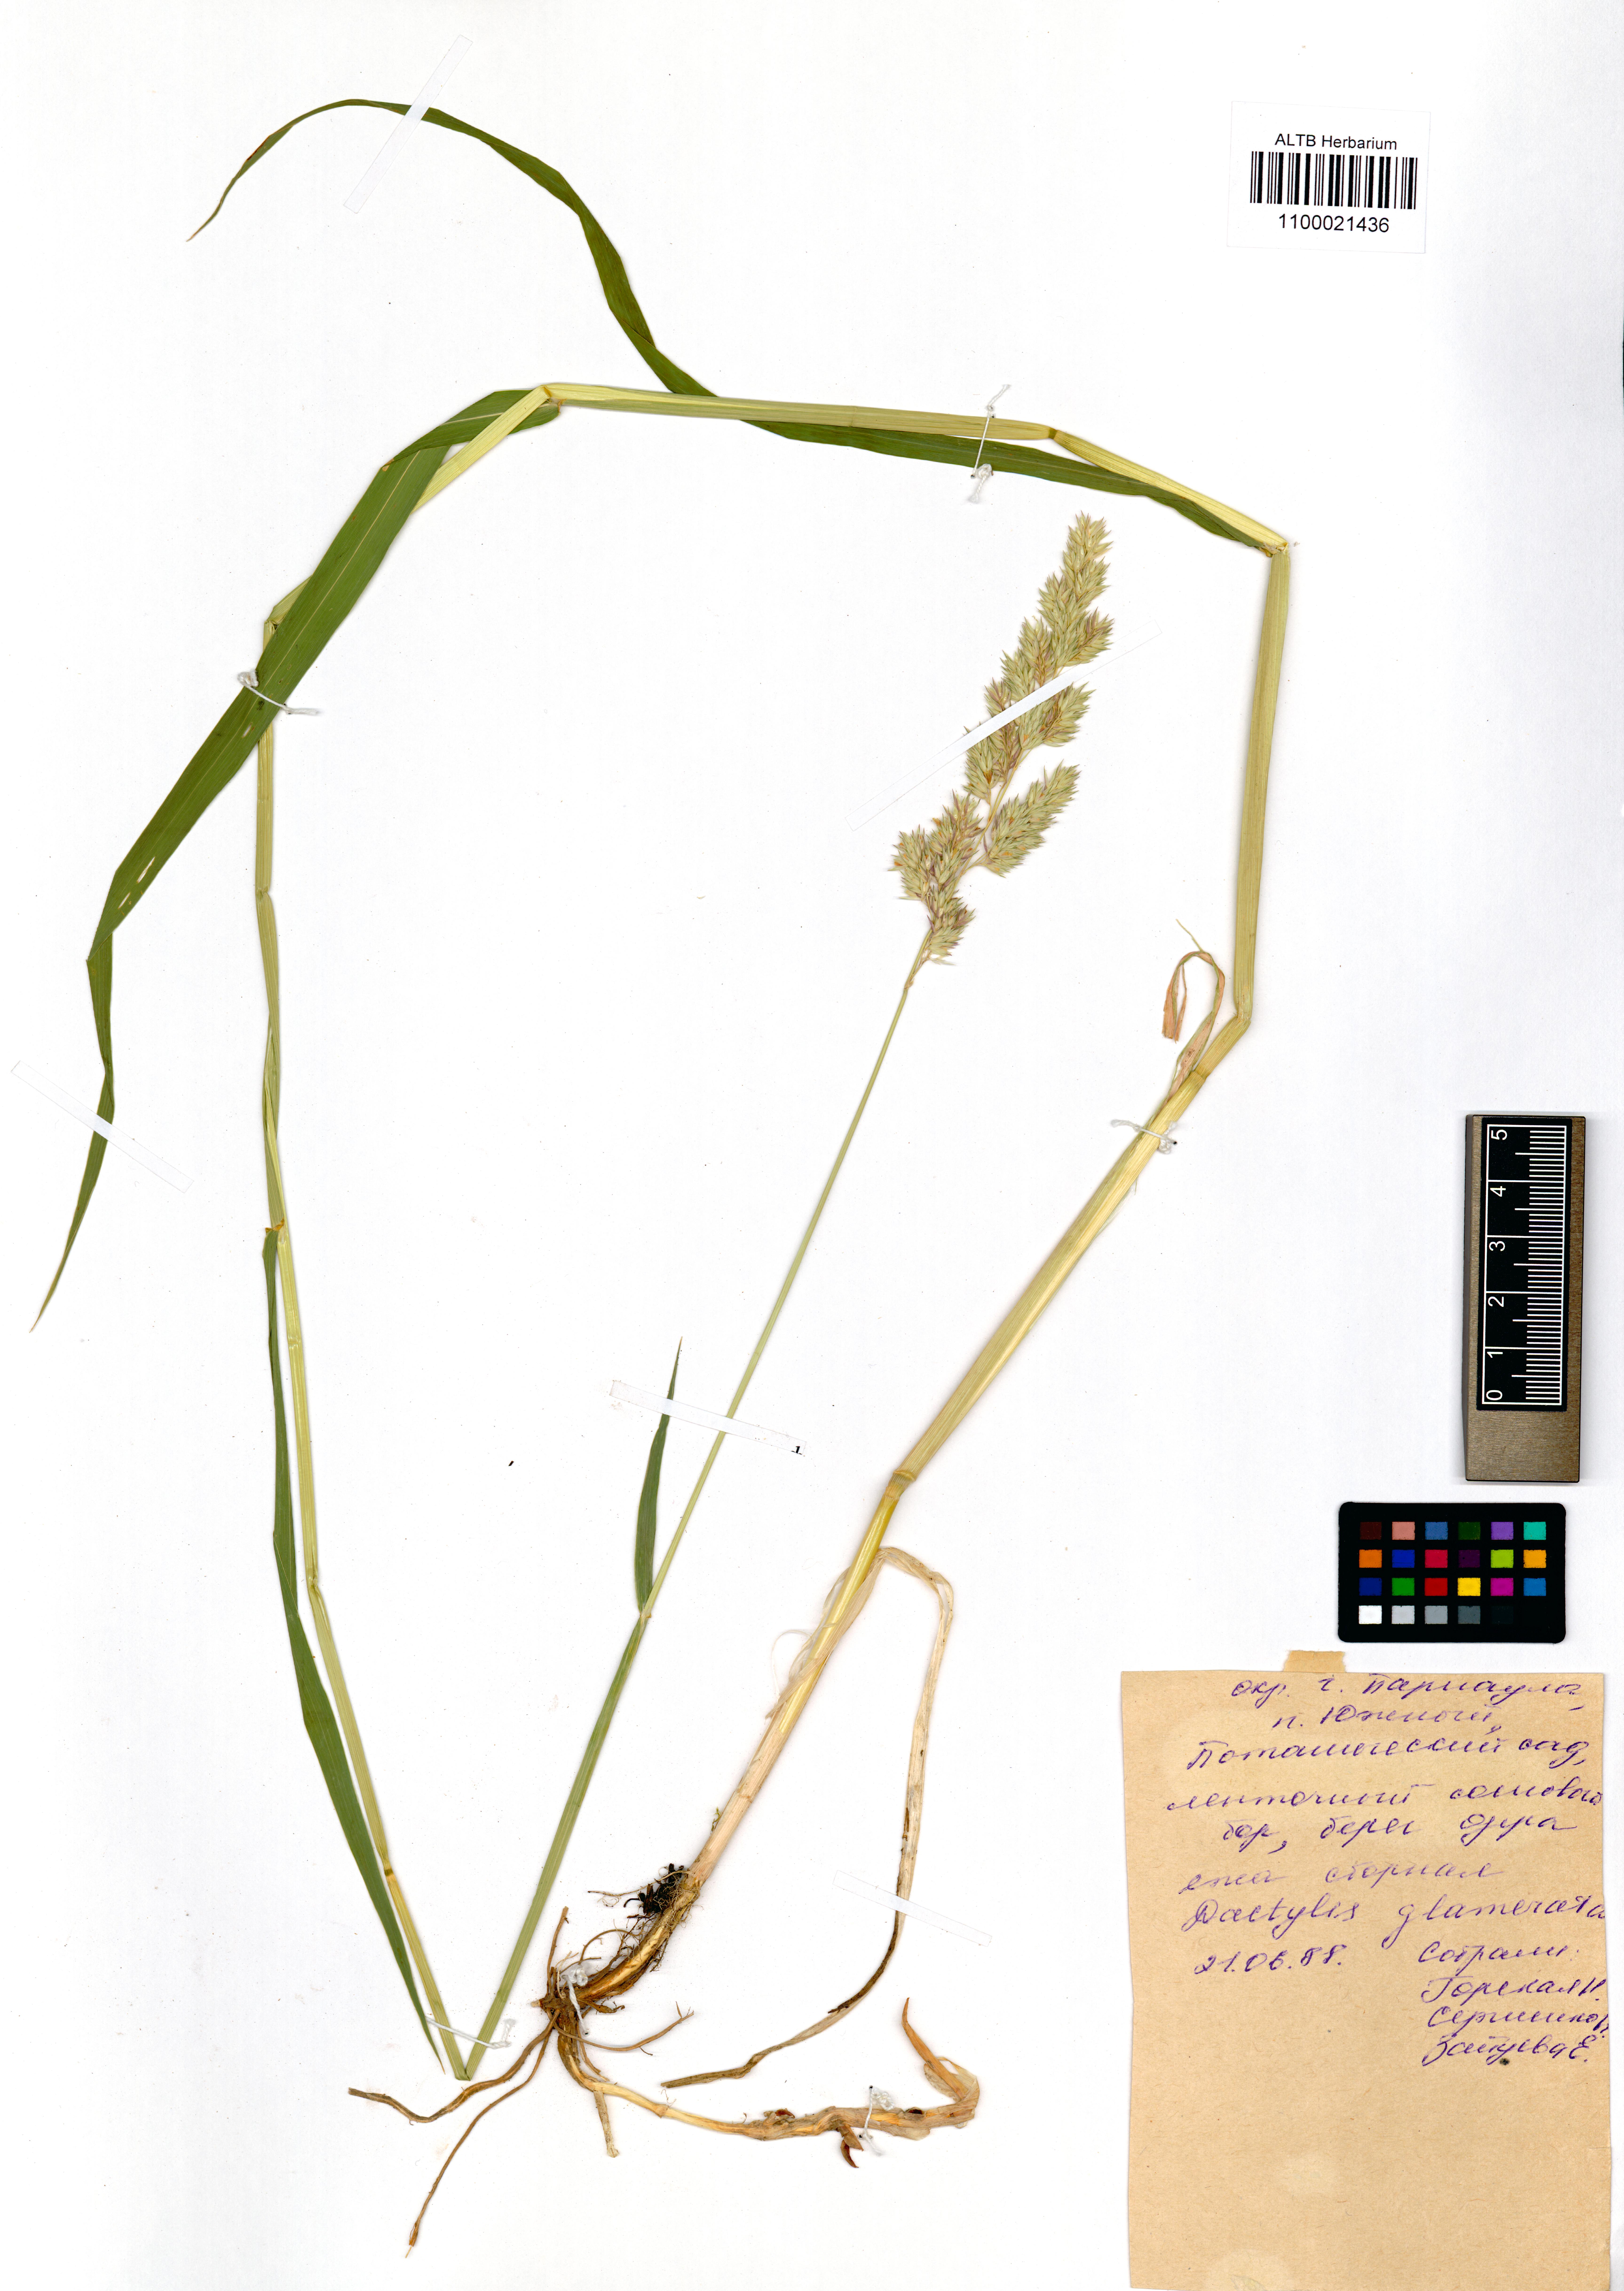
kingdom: Plantae
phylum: Tracheophyta
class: Liliopsida
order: Poales
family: Poaceae
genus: Dactylis
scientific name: Dactylis glomerata
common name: Orchardgrass
